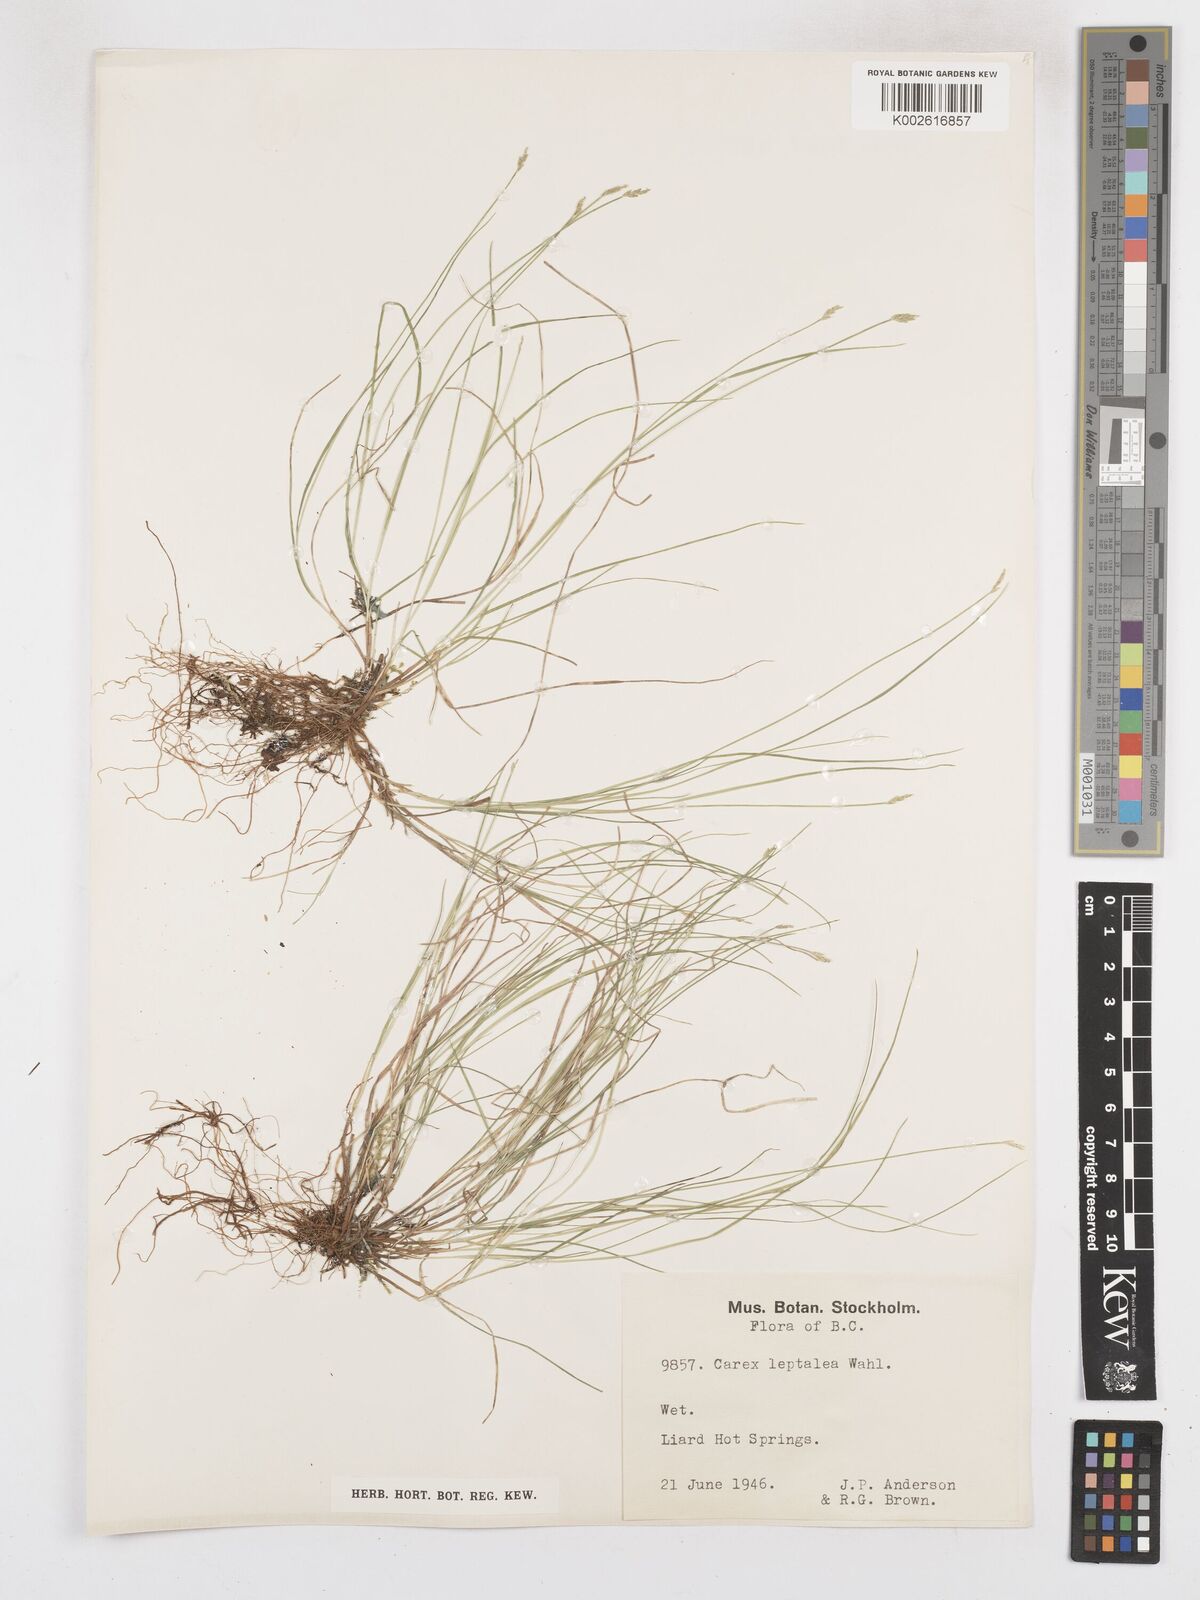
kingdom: Plantae
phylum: Tracheophyta
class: Liliopsida
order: Poales
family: Cyperaceae
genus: Carex
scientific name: Carex leptalea
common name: Bristly-stalked sedge
